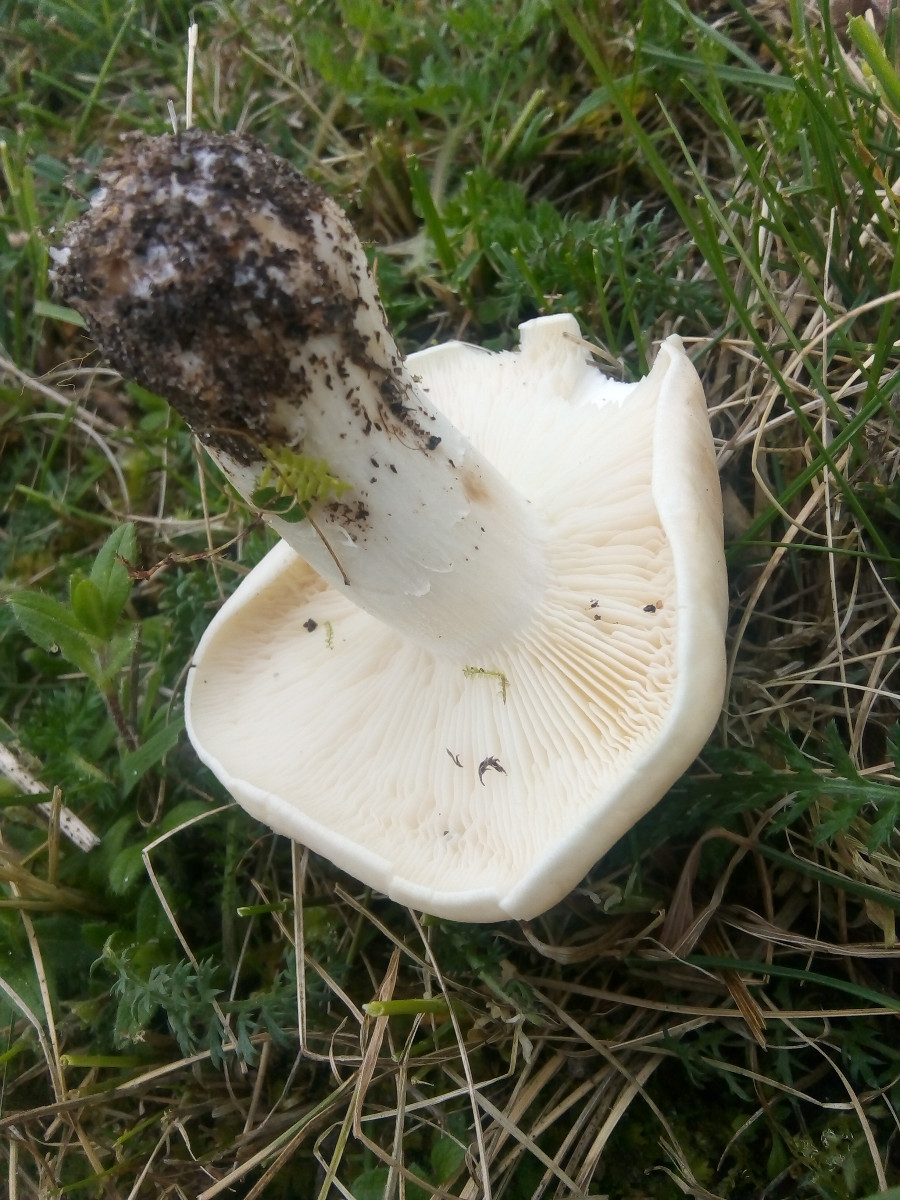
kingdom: Fungi
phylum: Basidiomycota
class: Agaricomycetes
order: Agaricales
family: Lyophyllaceae
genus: Calocybe
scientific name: Calocybe gambosa
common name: vårmusseron
